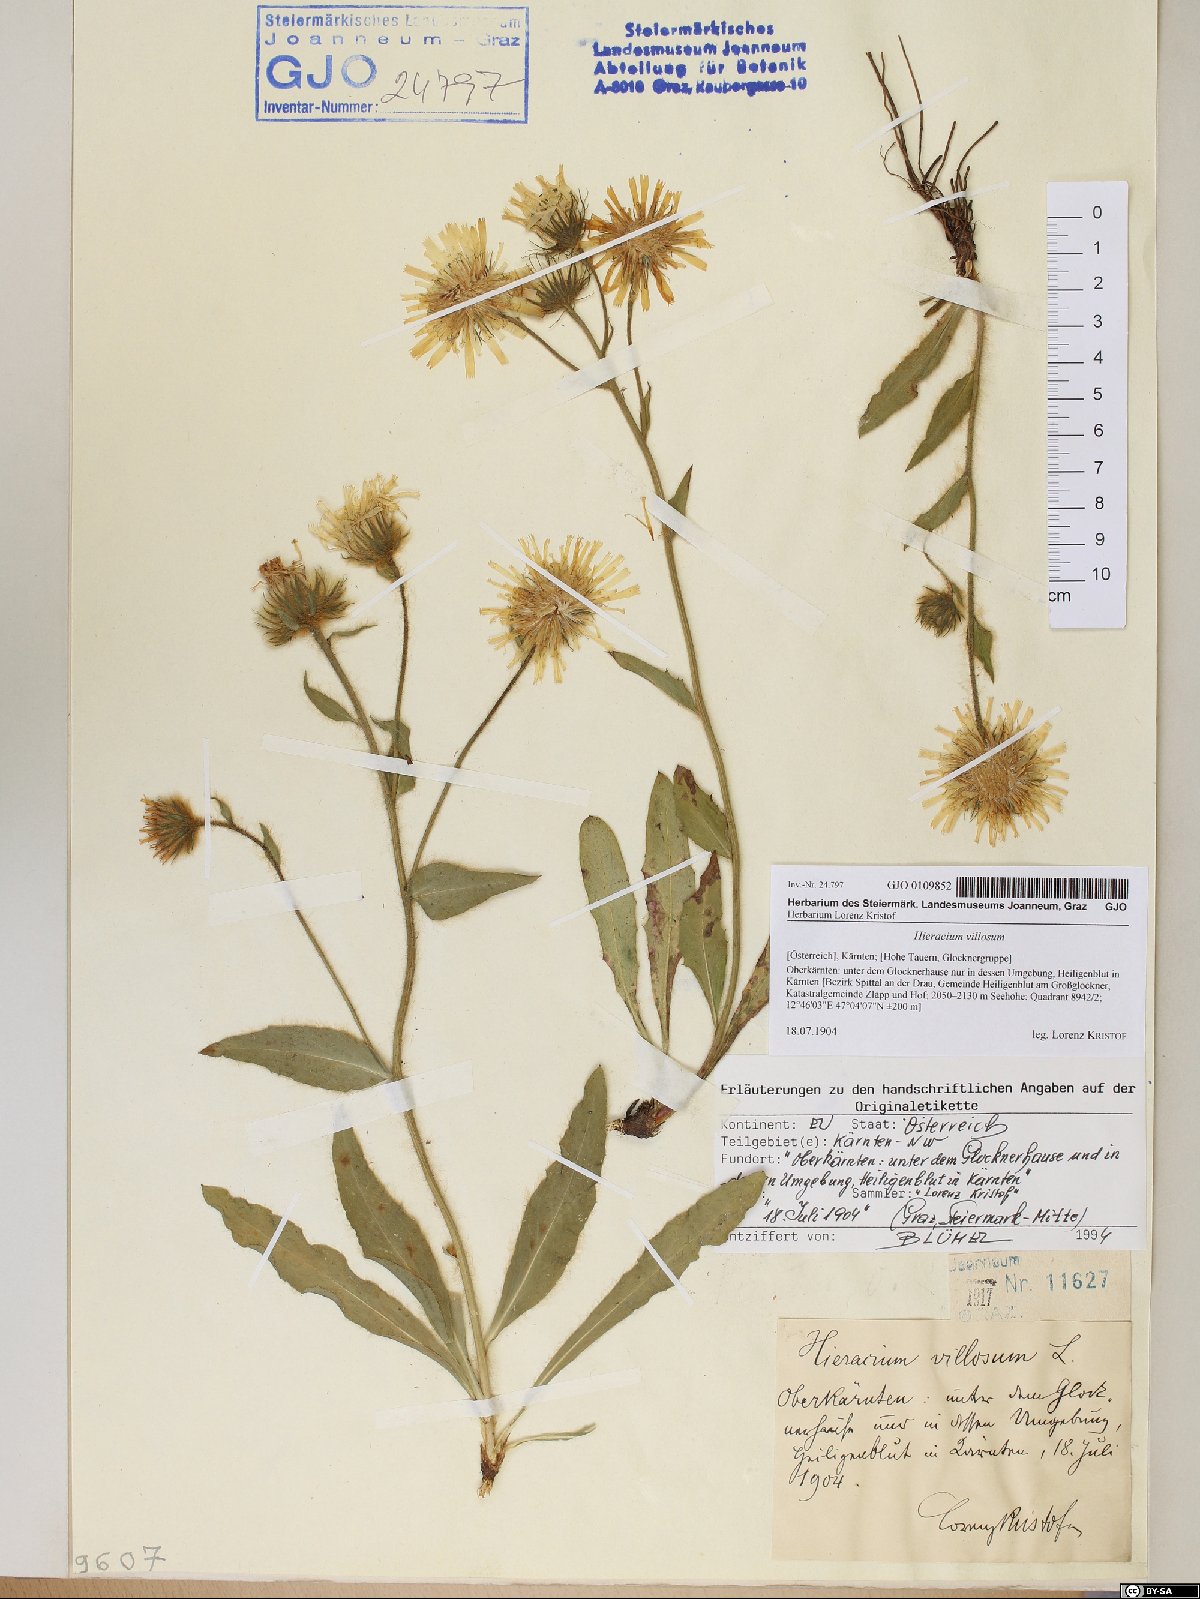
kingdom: Plantae
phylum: Tracheophyta
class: Magnoliopsida
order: Asterales
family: Asteraceae
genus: Hieracium
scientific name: Hieracium villosum
